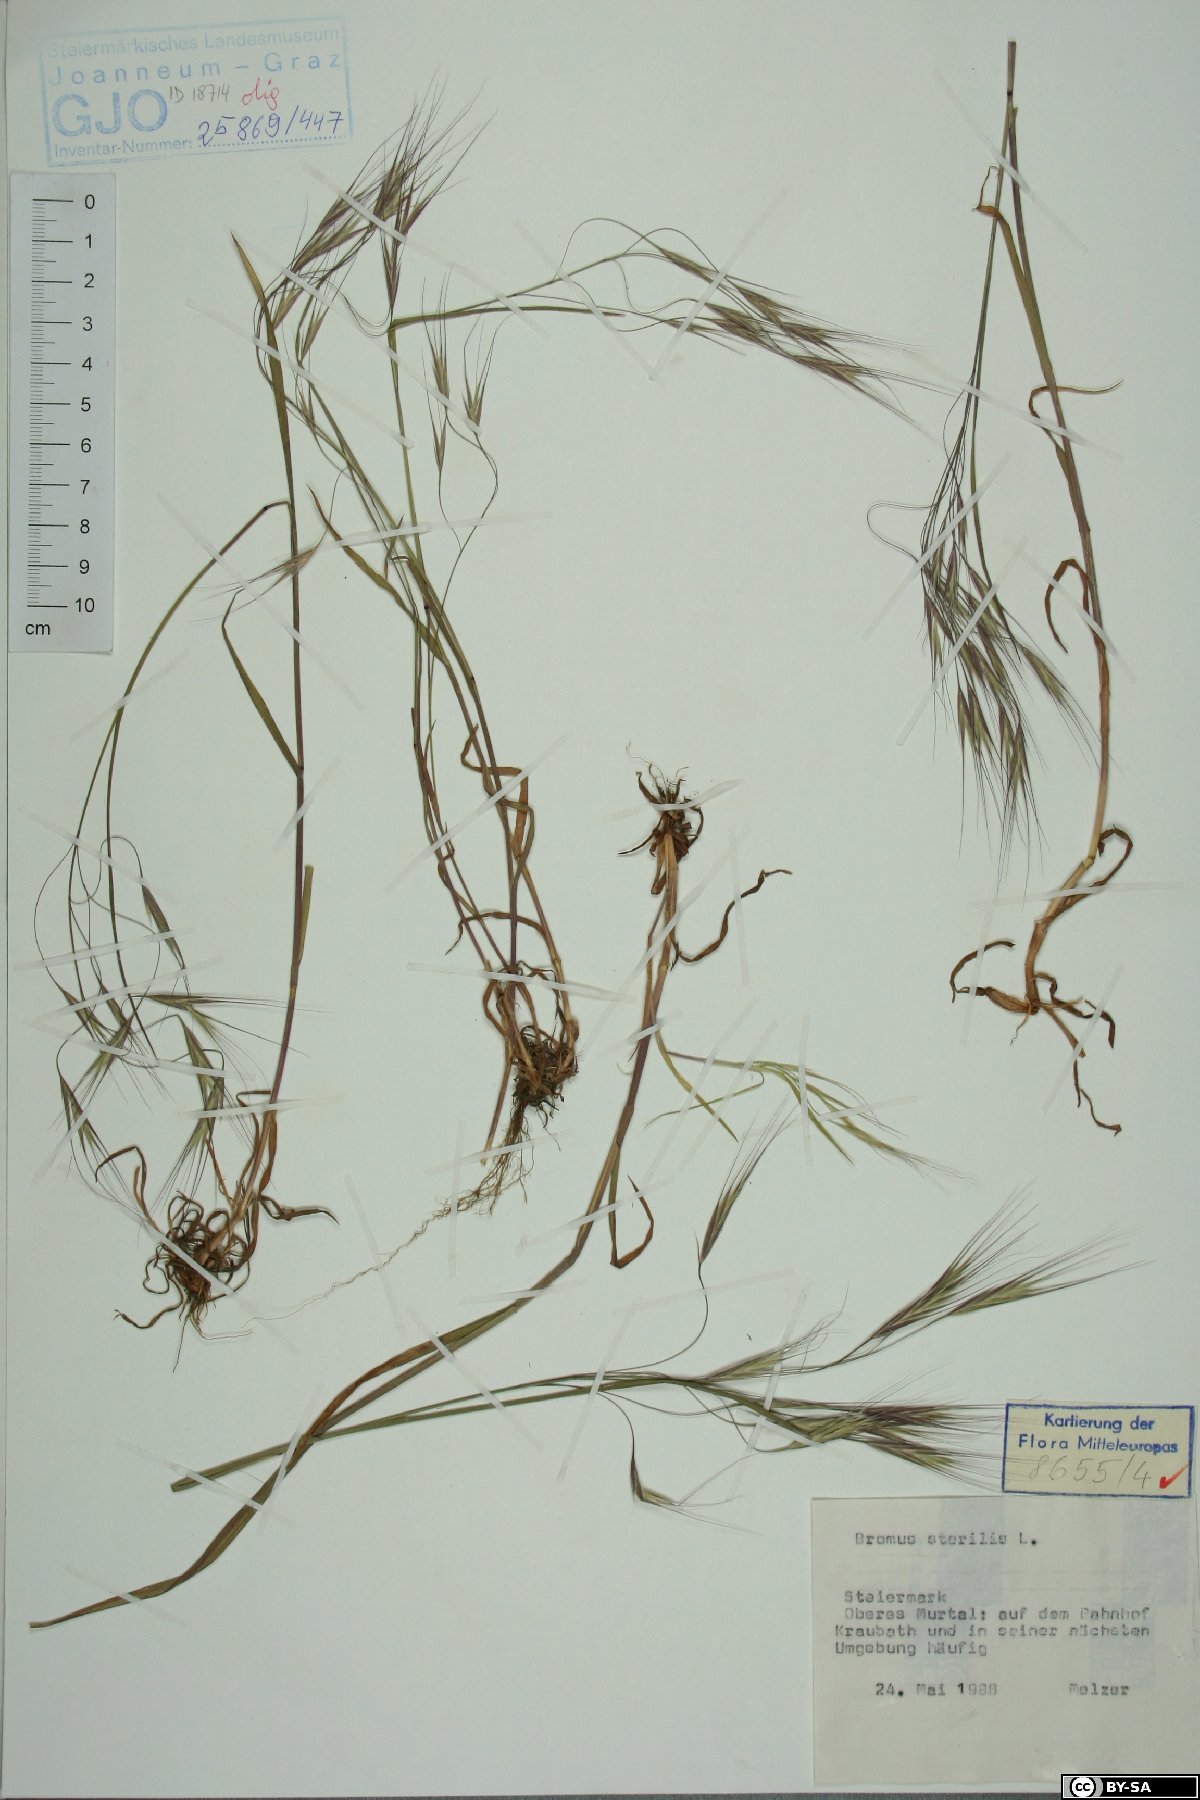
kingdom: Plantae
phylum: Tracheophyta
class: Liliopsida
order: Poales
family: Poaceae
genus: Bromus
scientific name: Bromus sterilis
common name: Poverty brome
